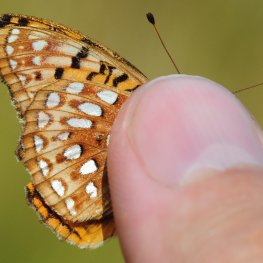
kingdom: Animalia
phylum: Arthropoda
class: Insecta
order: Lepidoptera
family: Nymphalidae
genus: Speyeria
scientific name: Speyeria aphrodite
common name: Aphrodite Fritillary
